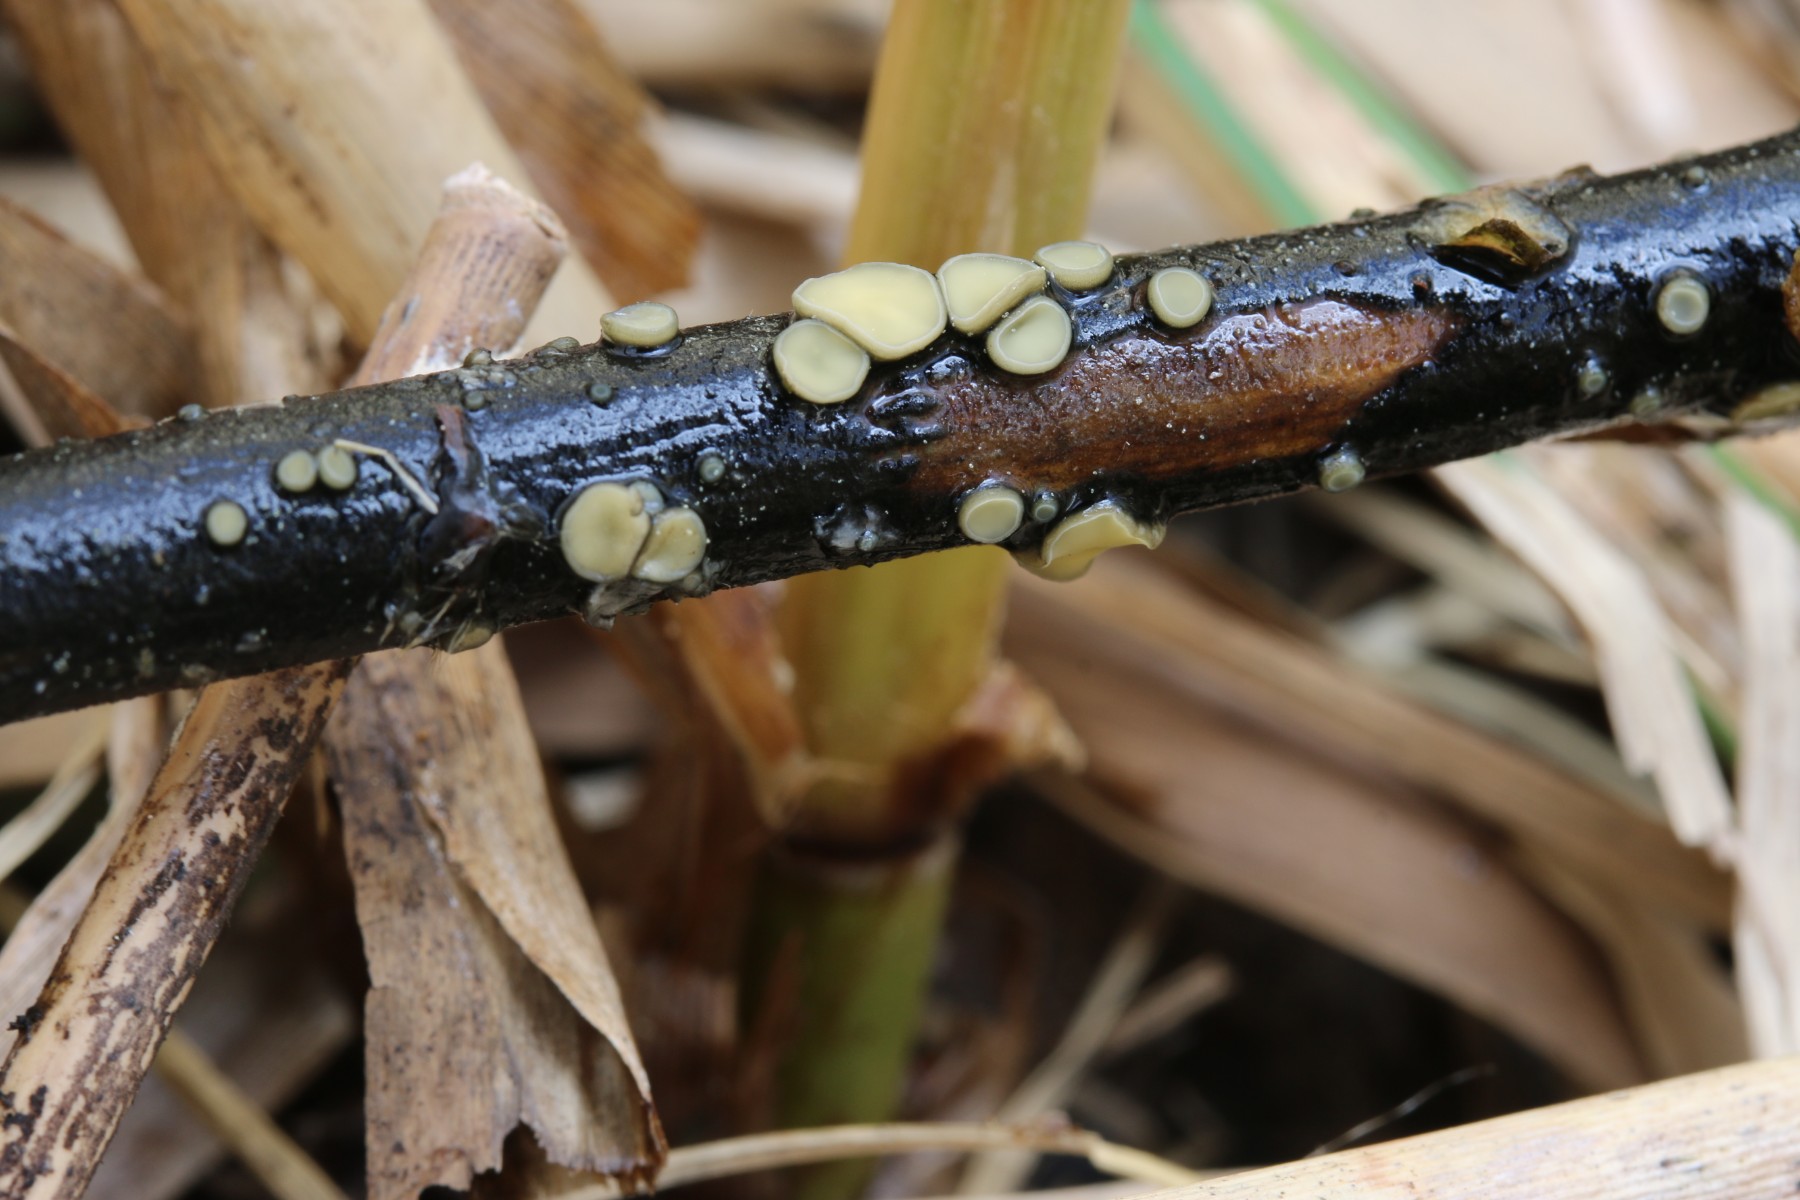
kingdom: Fungi
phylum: Ascomycota
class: Leotiomycetes
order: Helotiales
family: Mollisiaceae
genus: Trichobelonium
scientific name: Trichobelonium kneiffii
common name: tagrør-gråskive
